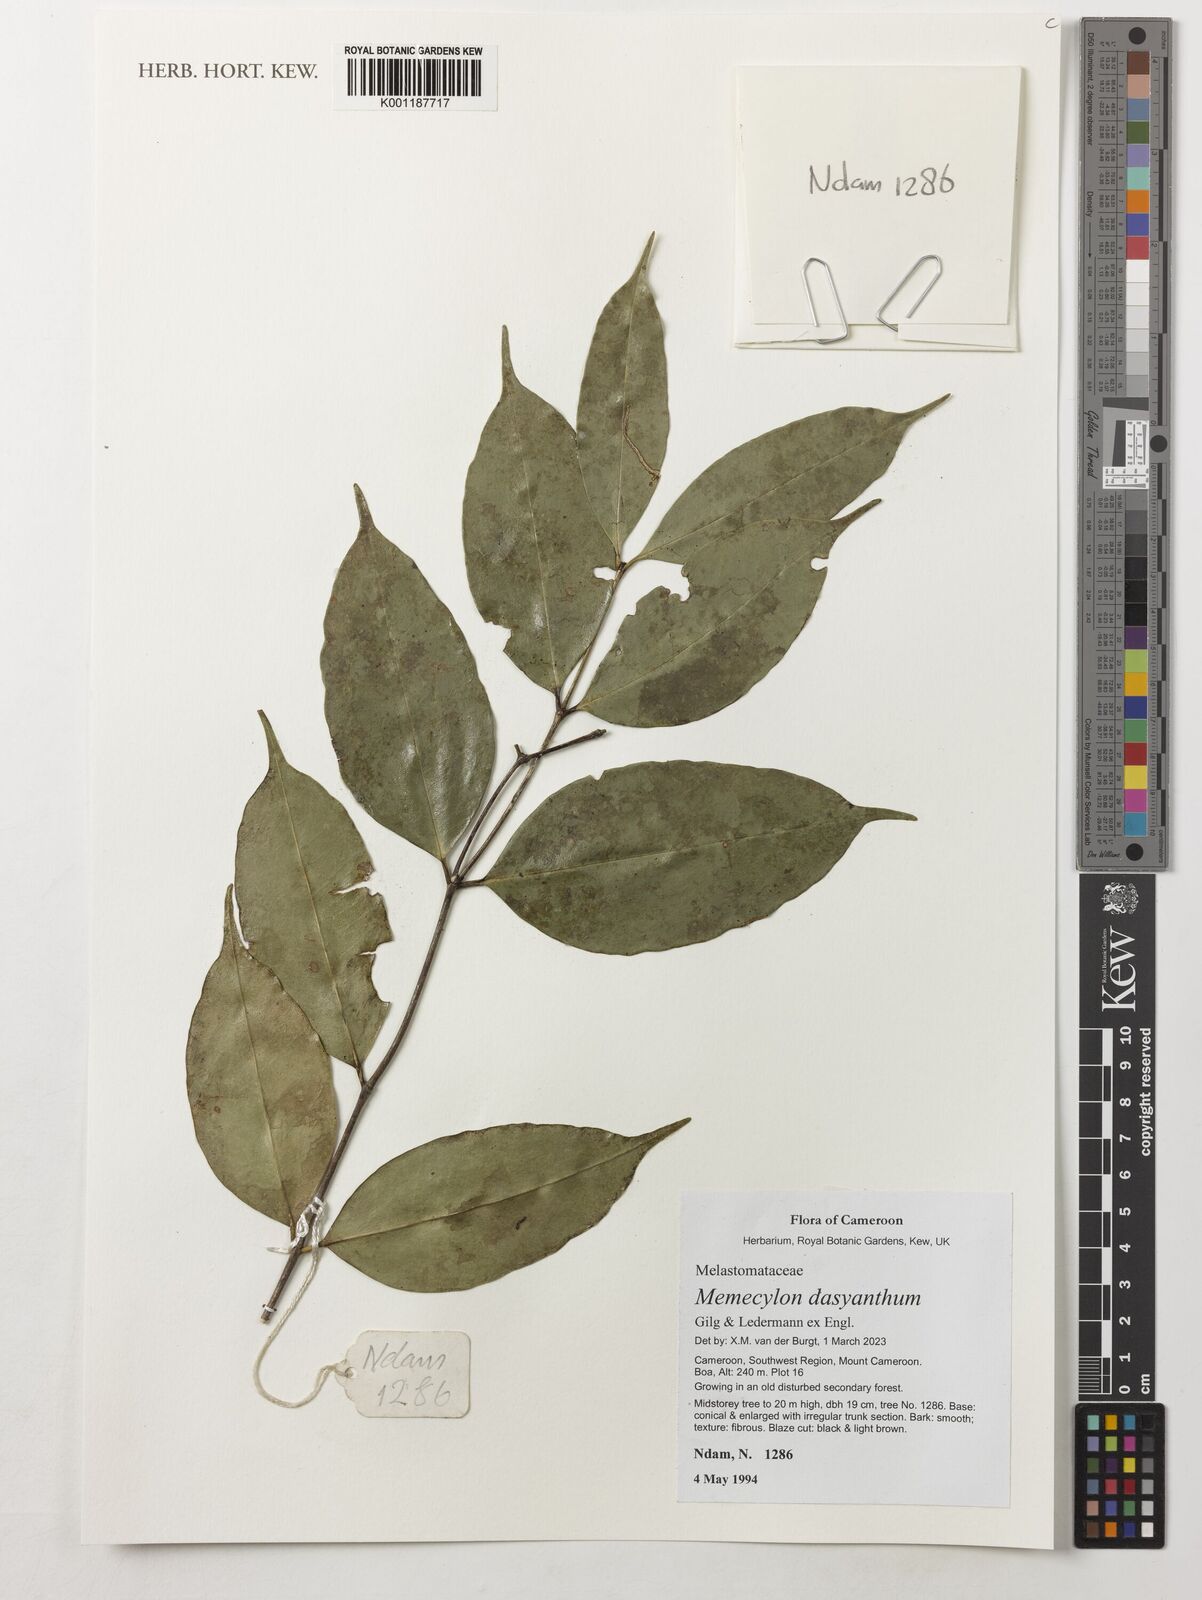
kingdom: Plantae
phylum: Tracheophyta
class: Magnoliopsida
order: Myrtales
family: Melastomataceae
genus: Memecylon
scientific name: Memecylon dasyanthum
